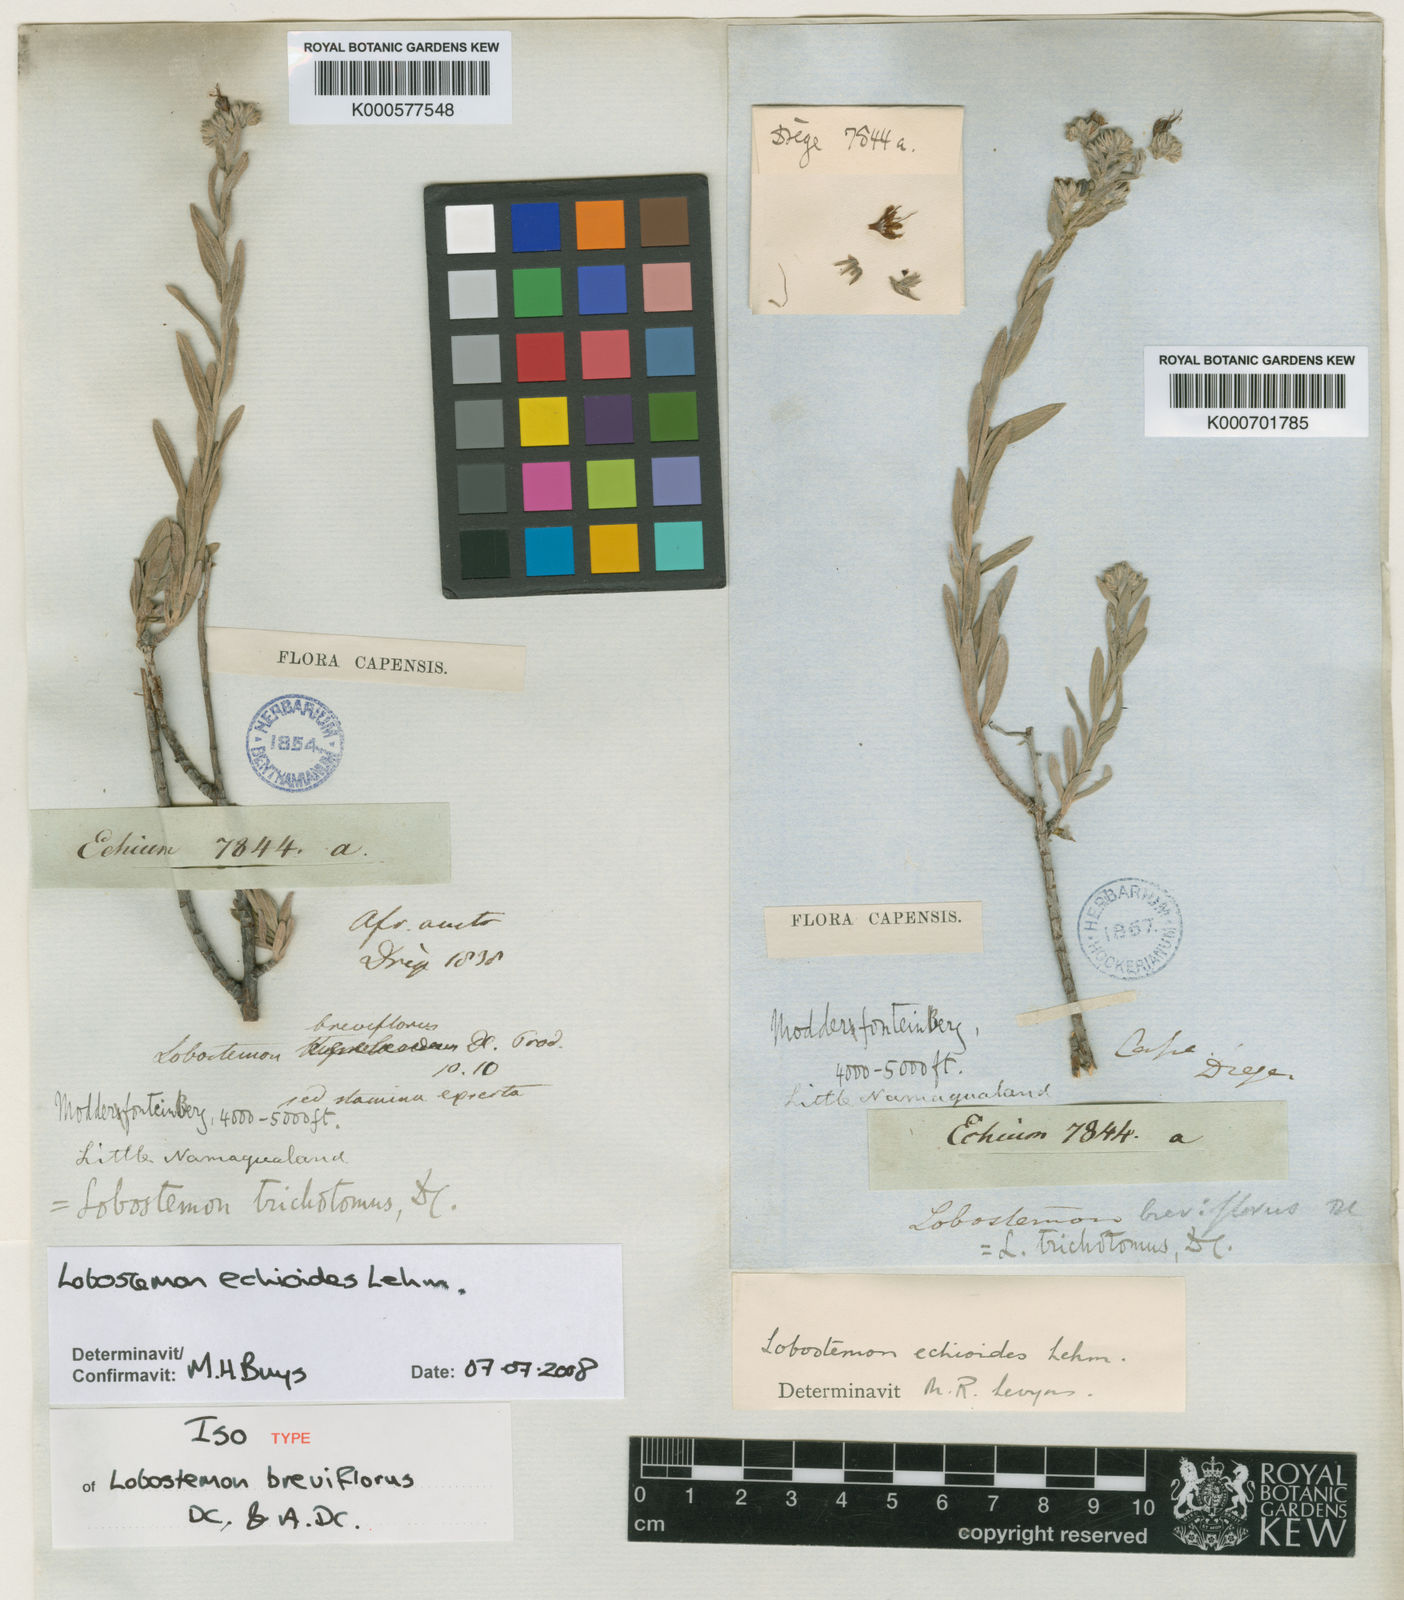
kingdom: Plantae
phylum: Tracheophyta
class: Magnoliopsida
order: Boraginales
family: Boraginaceae
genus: Lobostemon
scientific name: Lobostemon echioides
